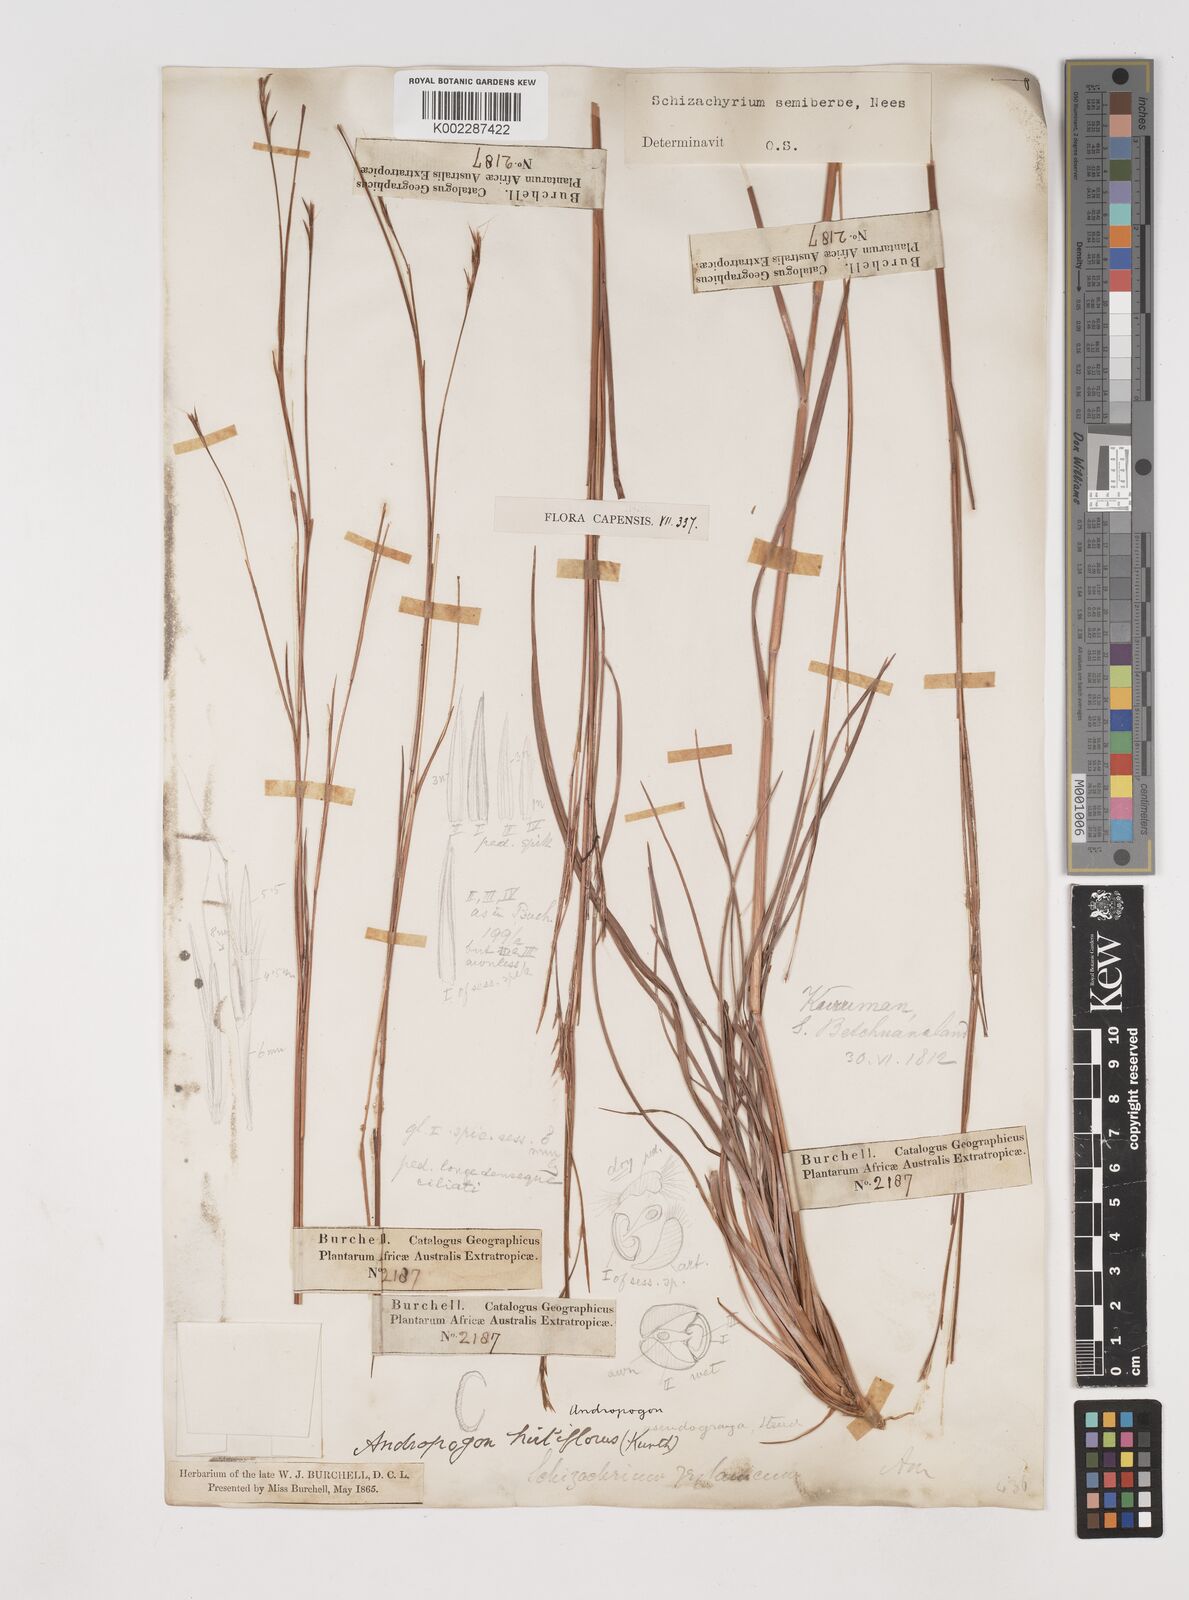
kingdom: Plantae
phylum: Tracheophyta
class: Liliopsida
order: Poales
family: Poaceae
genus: Schizachyrium
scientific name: Schizachyrium sanguineum
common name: Crimson bluestem
